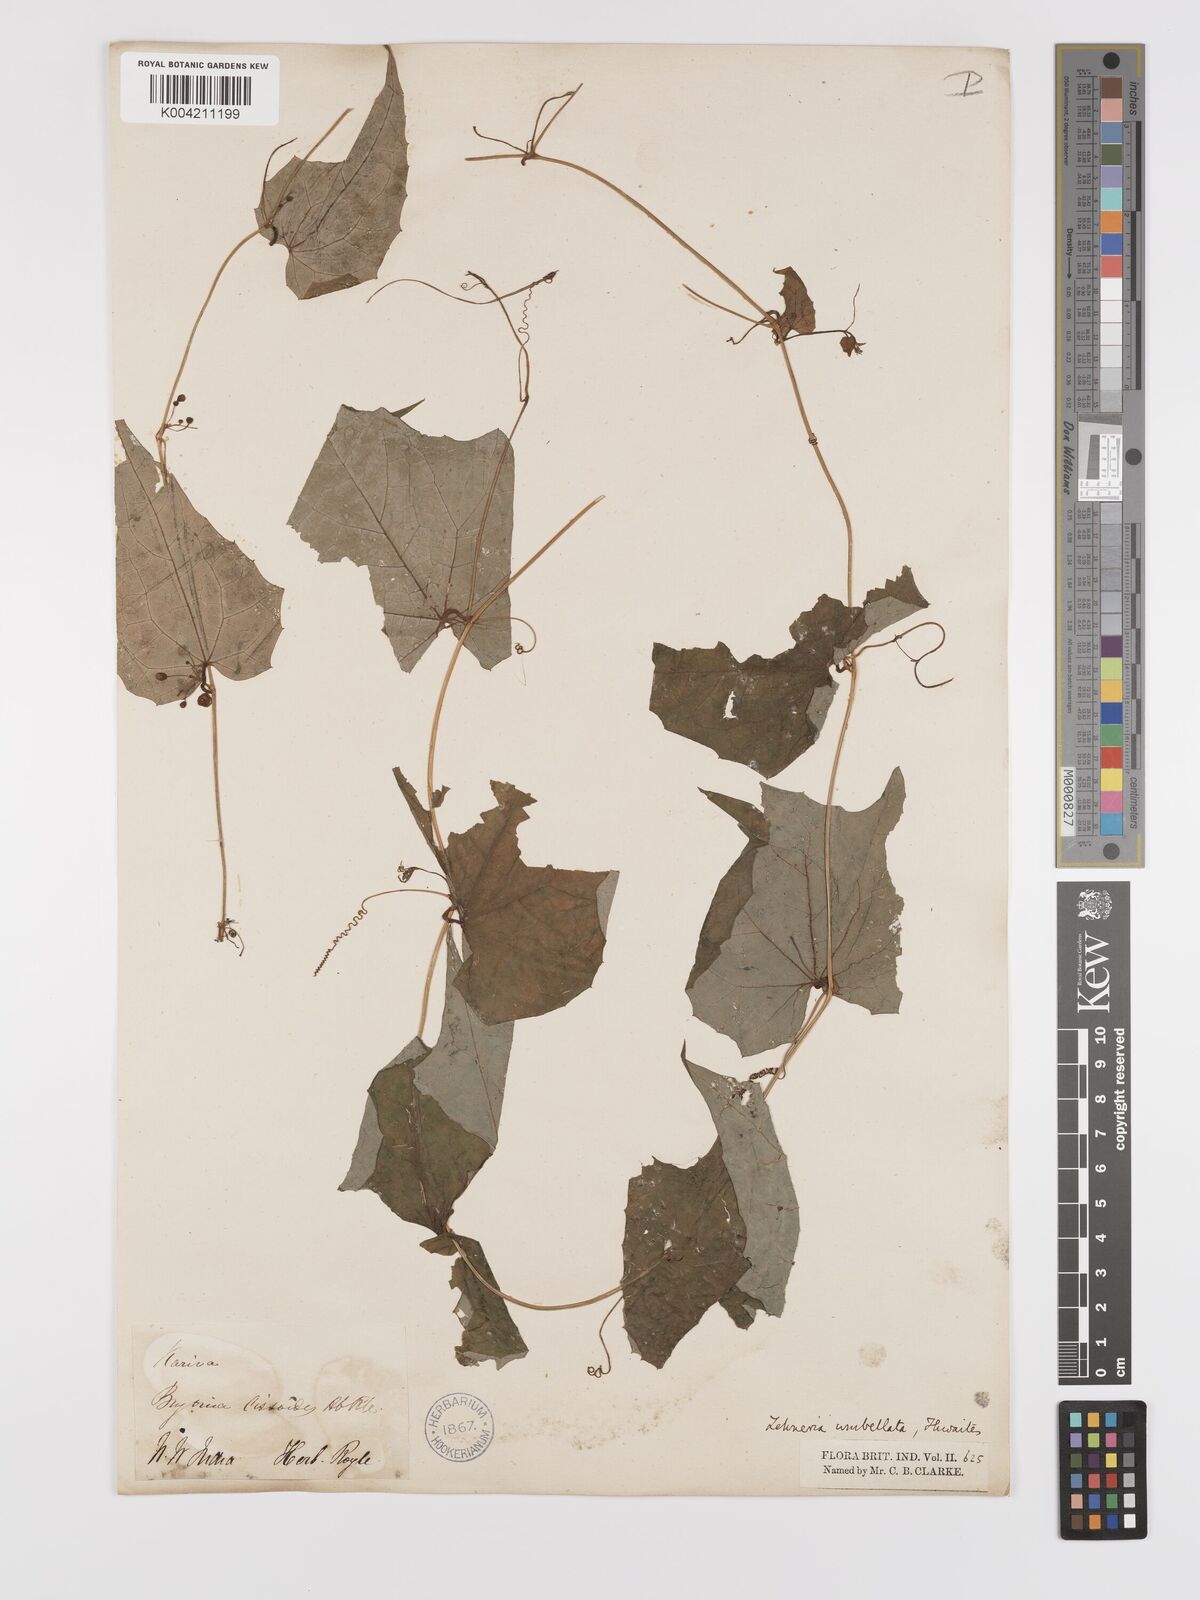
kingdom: Plantae
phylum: Tracheophyta
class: Magnoliopsida
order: Cucurbitales
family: Cucurbitaceae
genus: Solena
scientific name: Solena amplexicaulis
